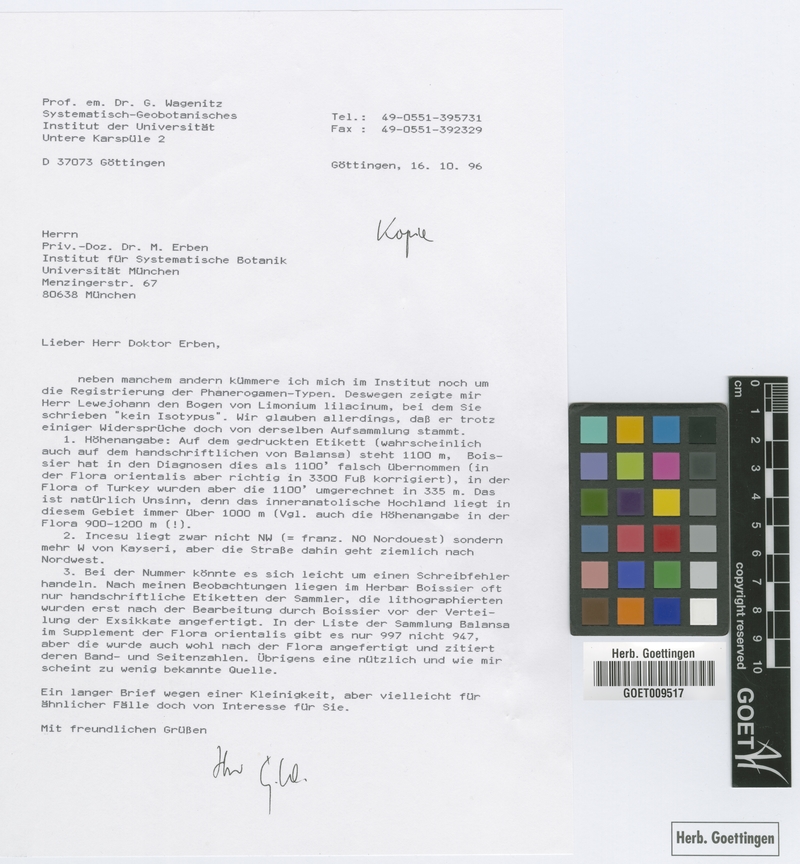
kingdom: Plantae
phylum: Tracheophyta
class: Magnoliopsida
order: Caryophyllales
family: Plumbaginaceae
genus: Limonium
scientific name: Limonium lilacinum
